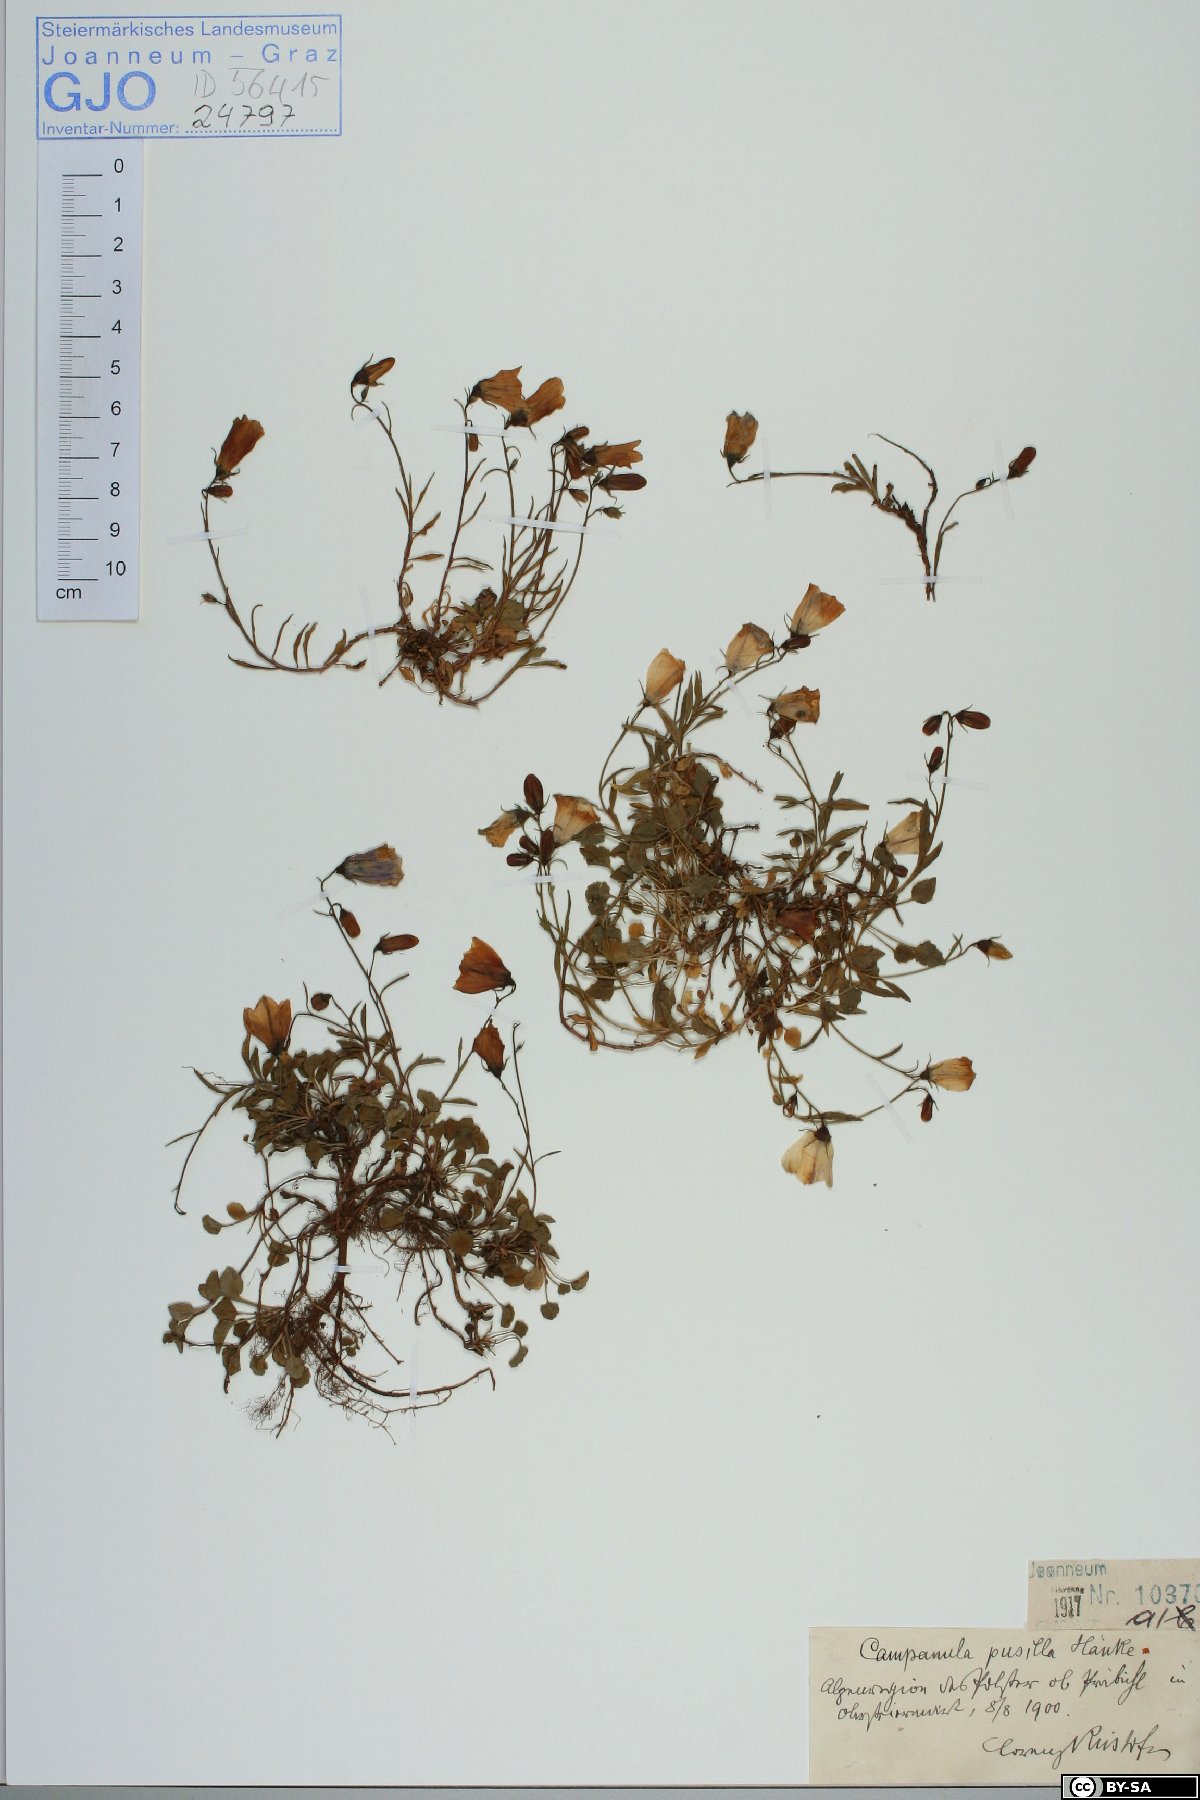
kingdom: Plantae
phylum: Tracheophyta
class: Magnoliopsida
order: Asterales
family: Campanulaceae
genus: Campanula
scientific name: Campanula cochleariifolia
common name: Fairies'-thimbles
